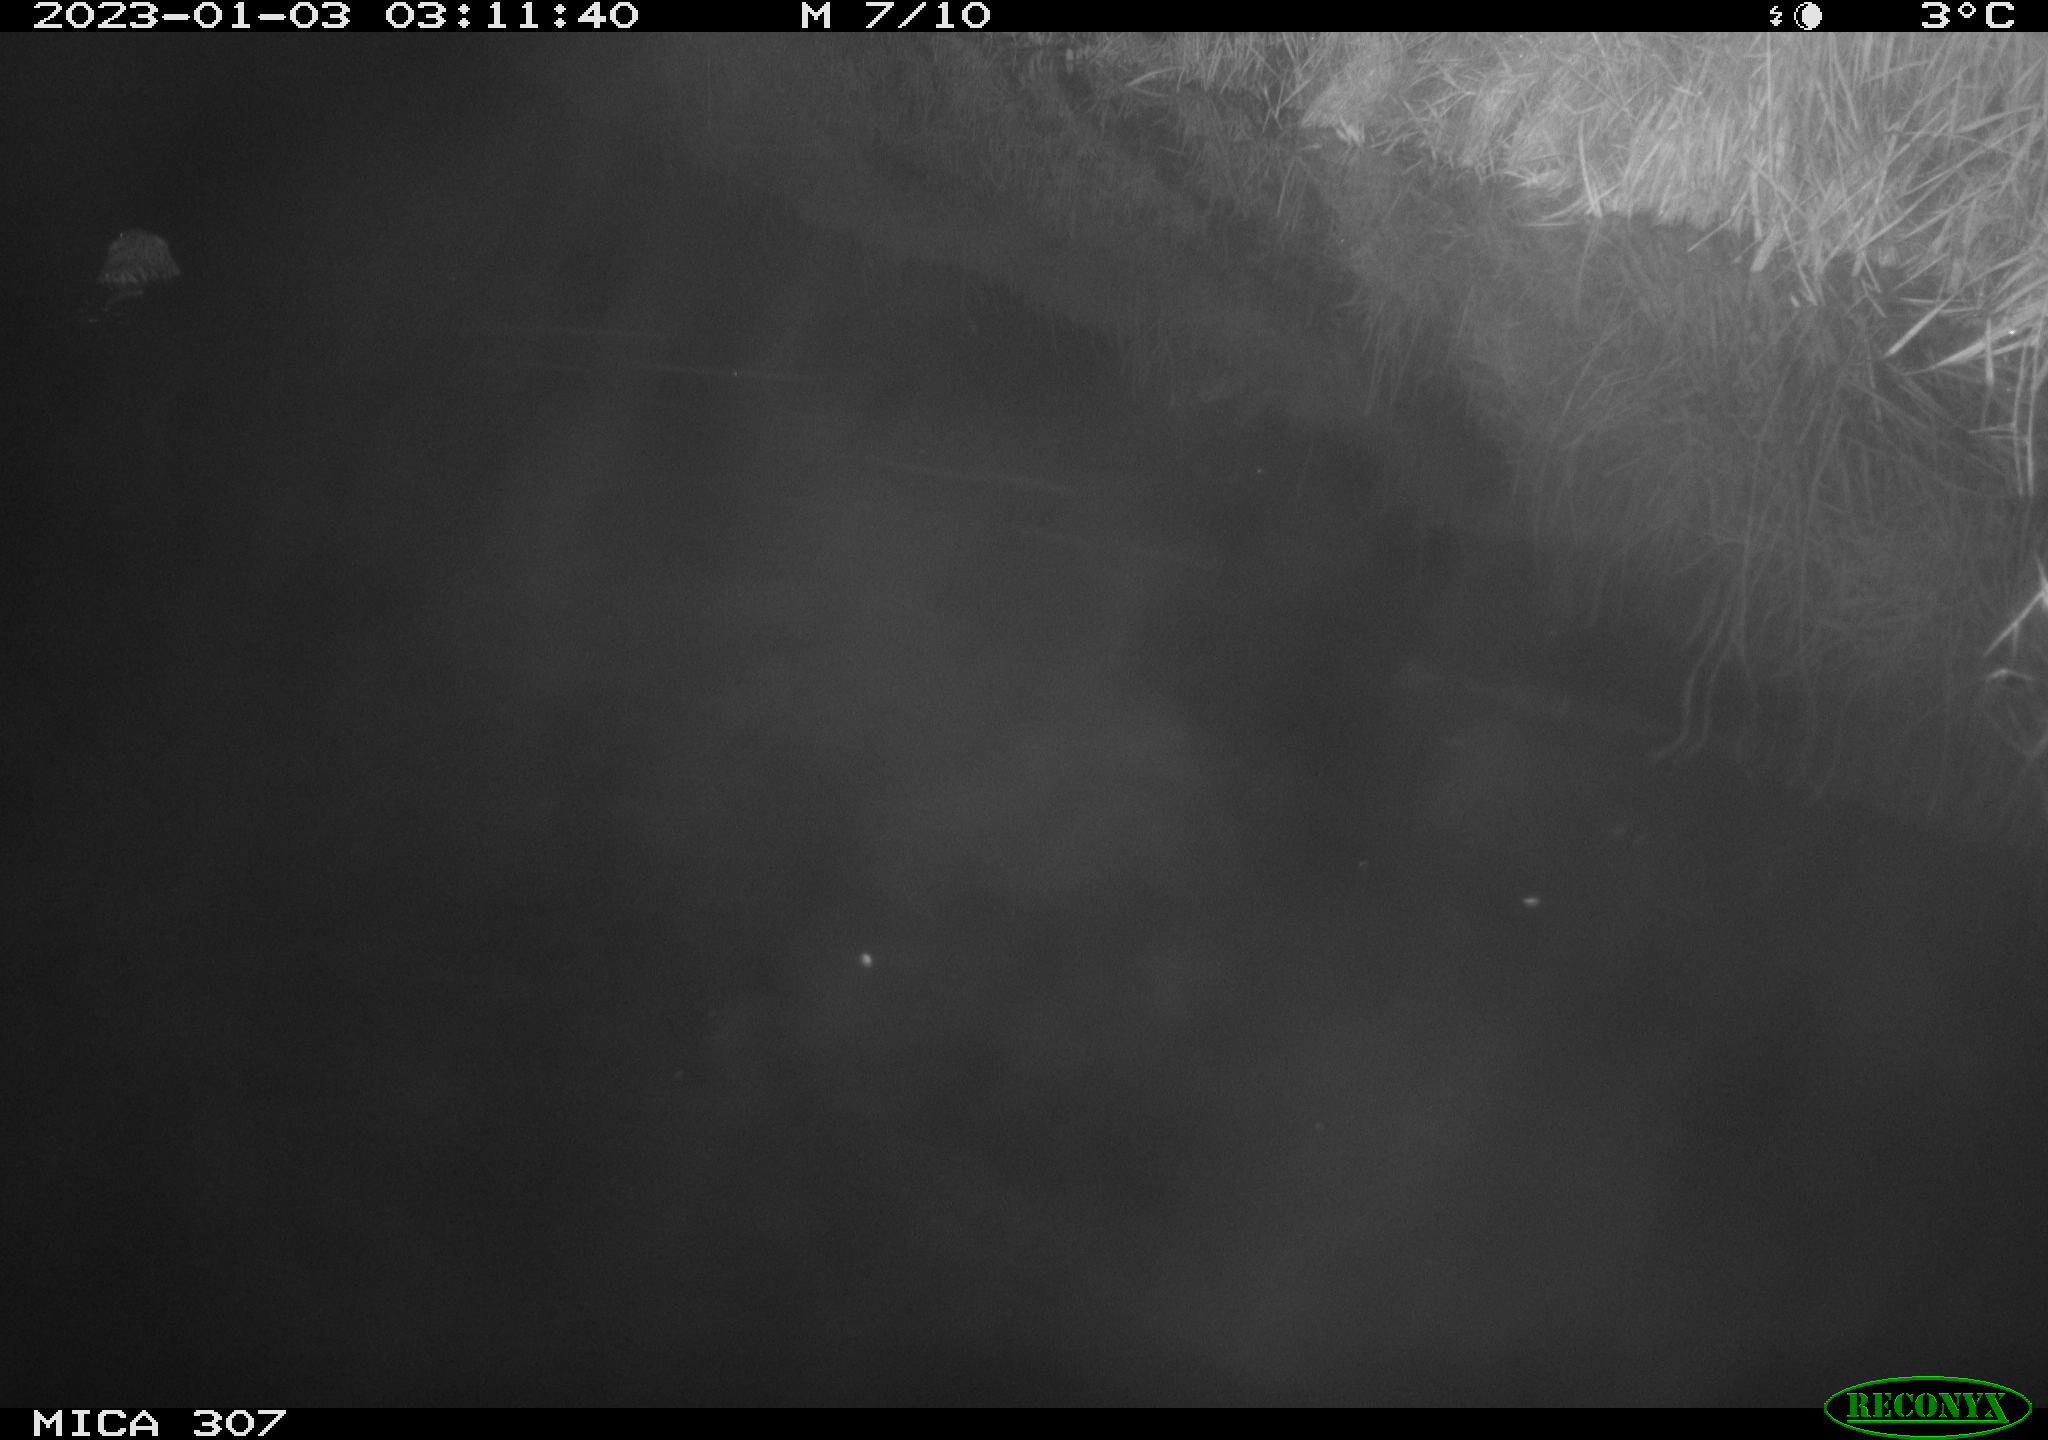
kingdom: Animalia
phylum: Chordata
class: Mammalia
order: Rodentia
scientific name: Rodentia
